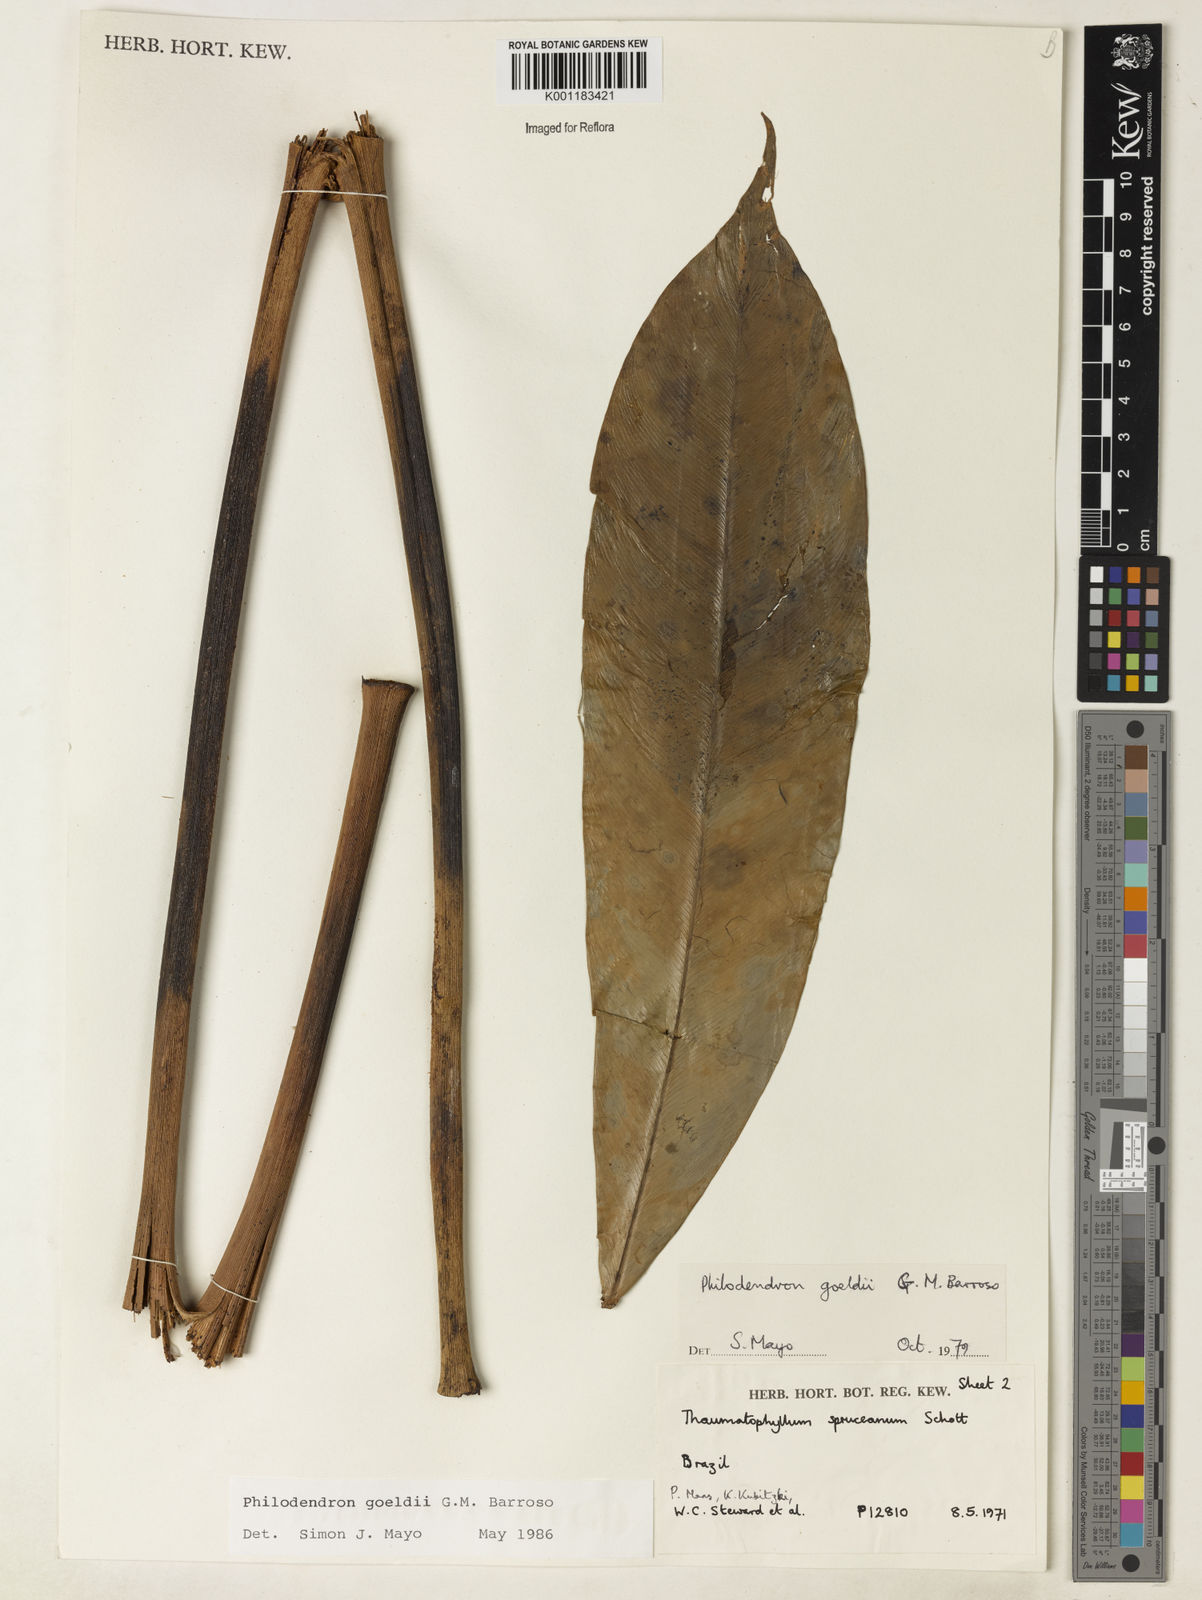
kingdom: Plantae
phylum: Tracheophyta
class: Liliopsida
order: Alismatales
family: Araceae
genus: Thaumatophyllum
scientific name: Thaumatophyllum spruceanum
